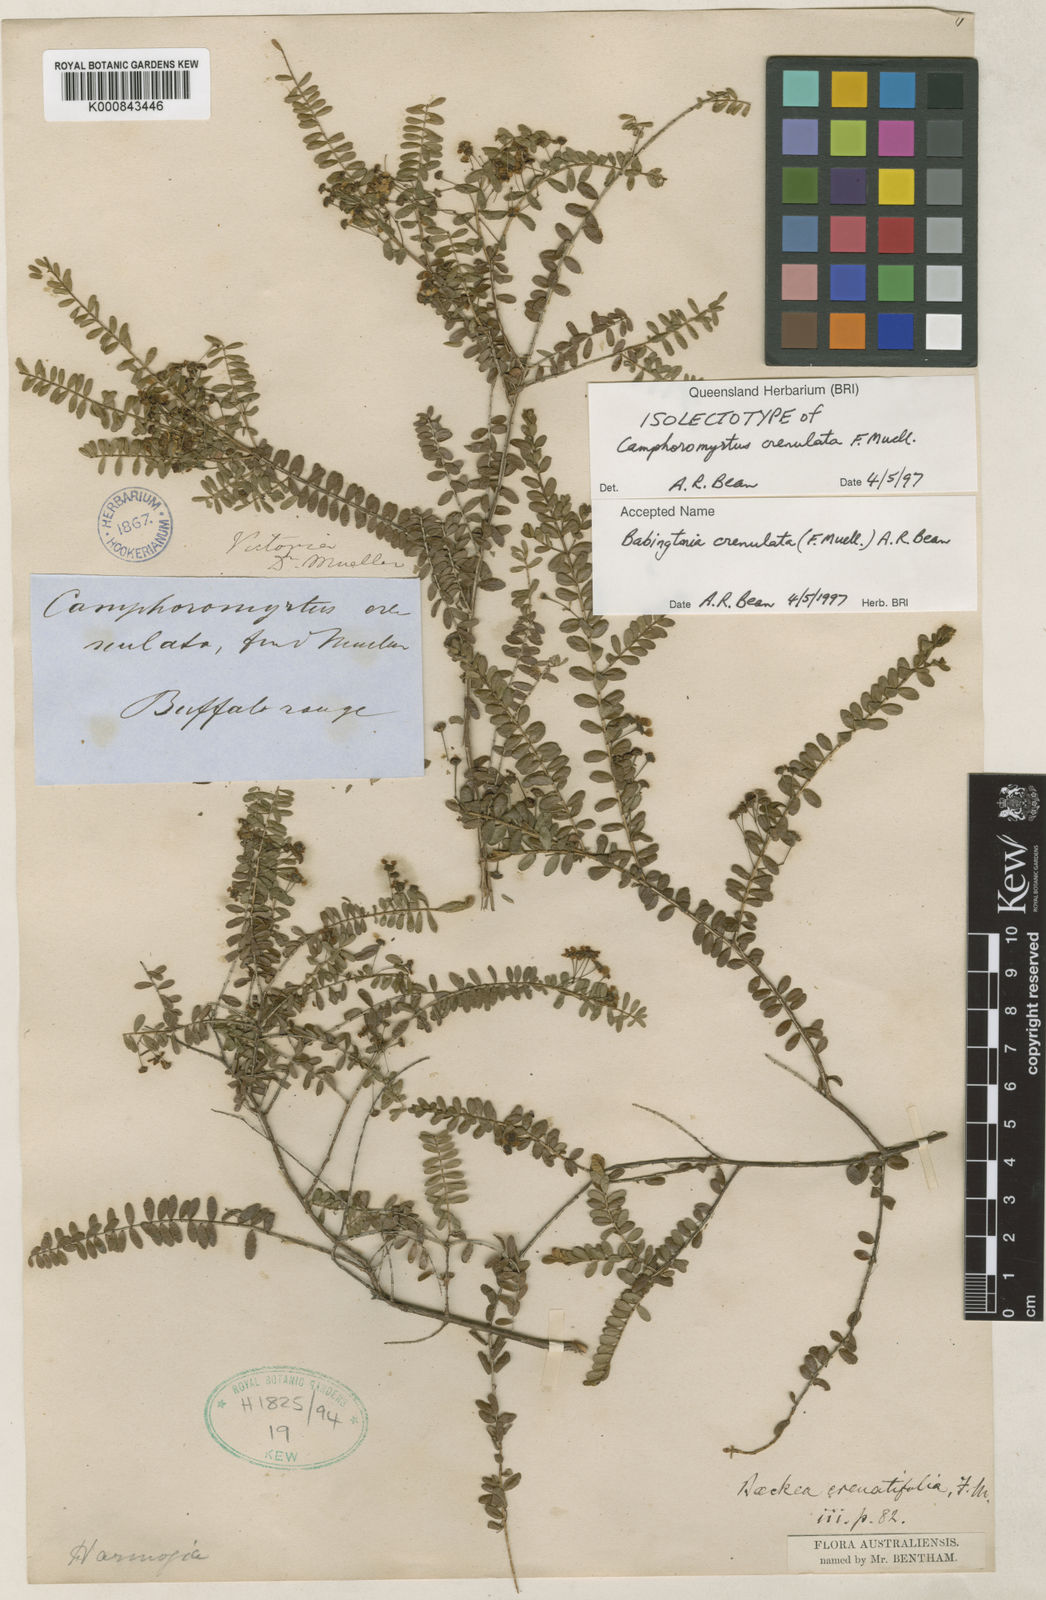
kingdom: Plantae
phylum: Tracheophyta
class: Magnoliopsida
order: Myrtales
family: Myrtaceae
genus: Sannantha
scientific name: Sannantha crenulata
